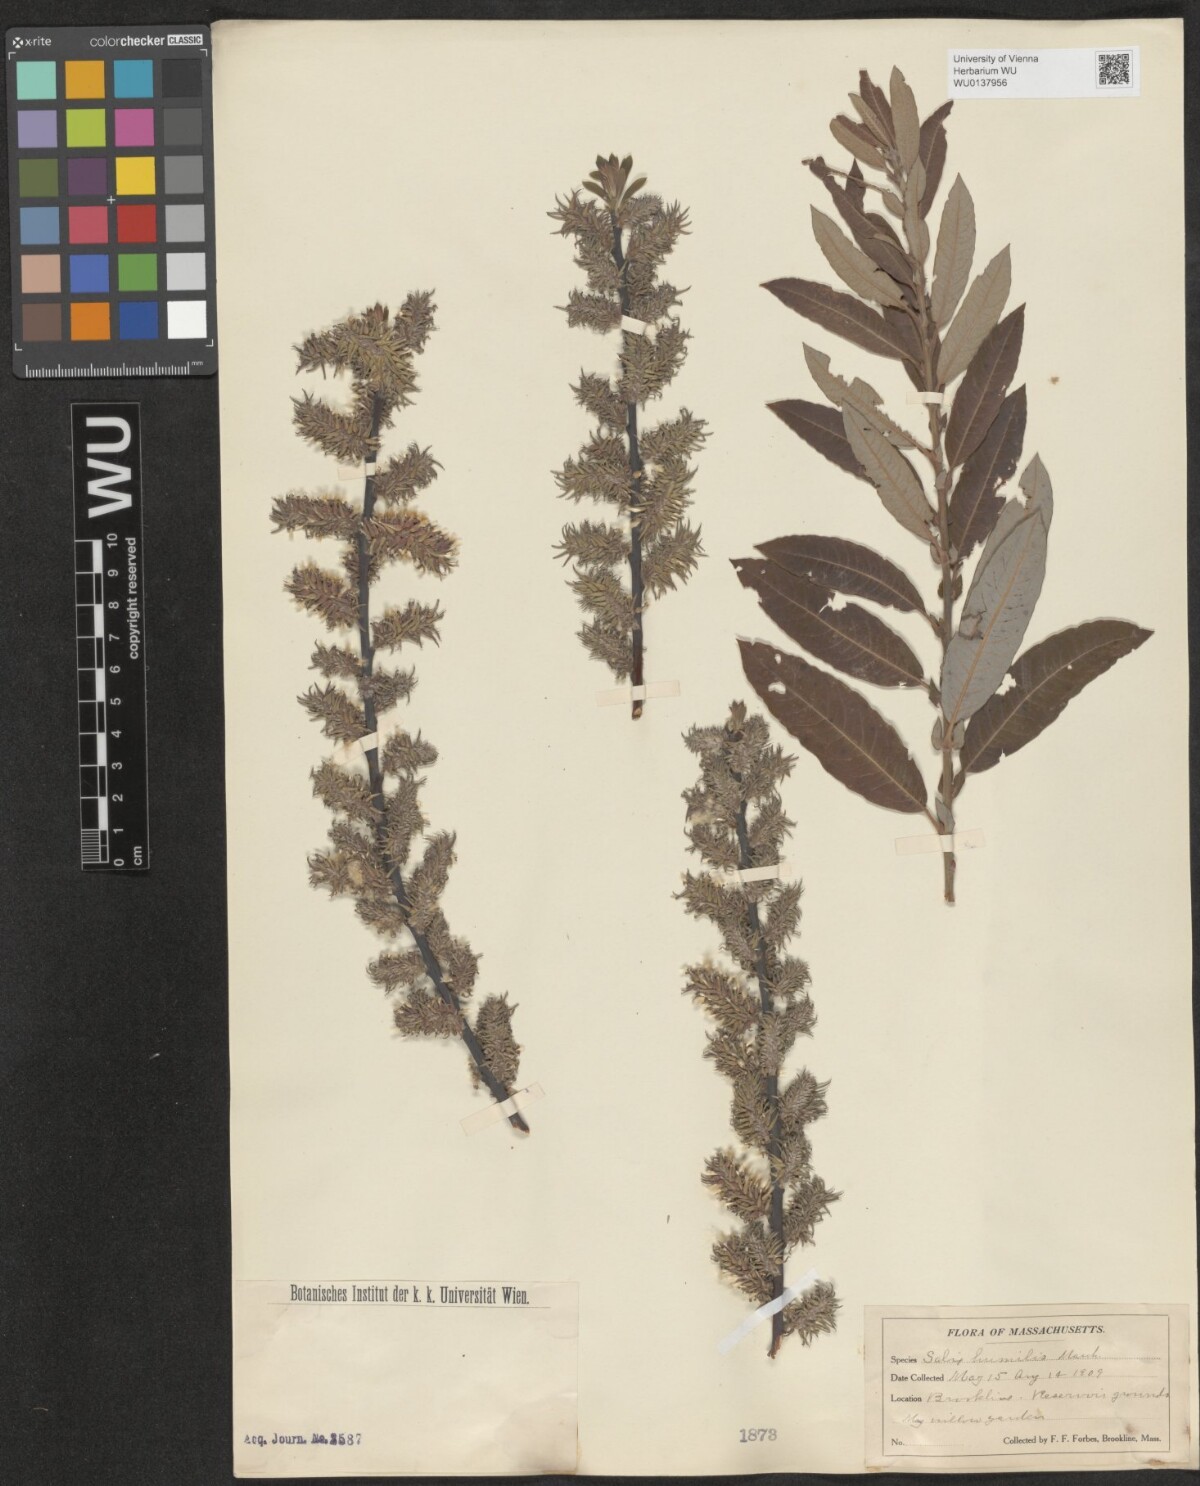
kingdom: Plantae
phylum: Tracheophyta
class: Magnoliopsida
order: Malpighiales
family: Salicaceae
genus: Salix
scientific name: Salix humilis
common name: Prairie willow
